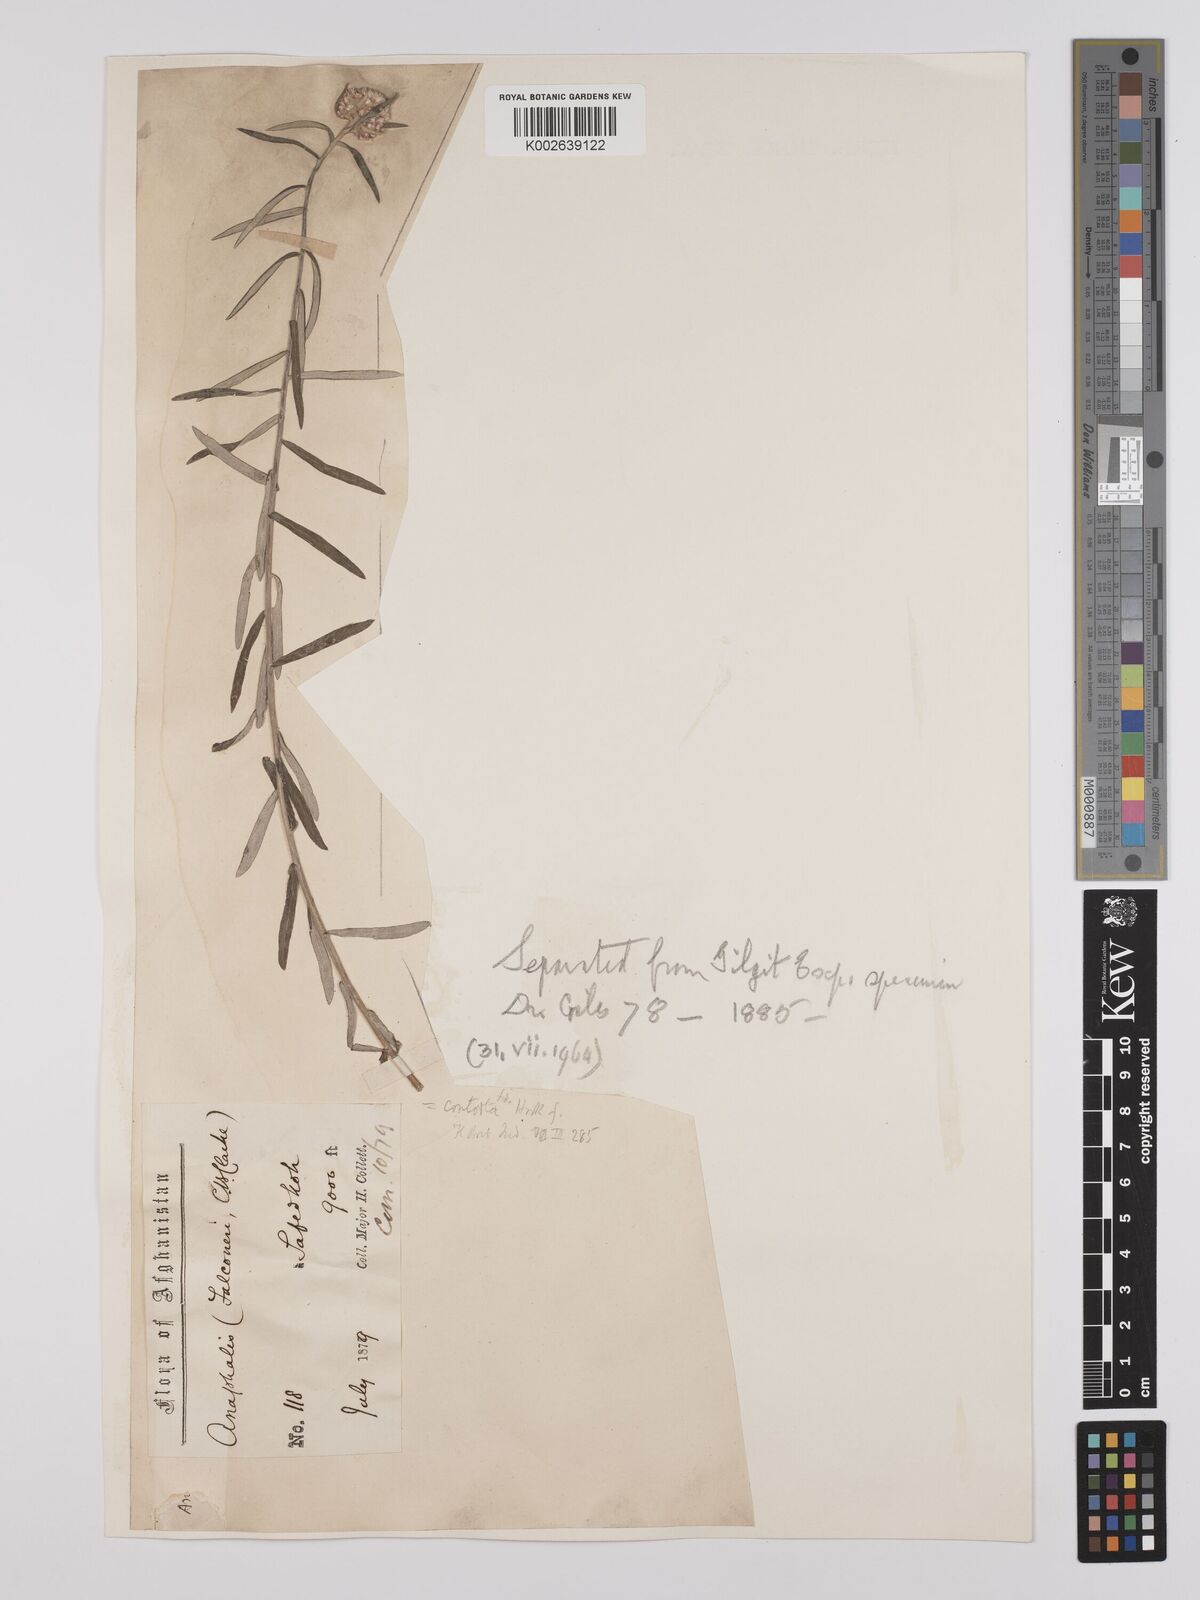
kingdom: Plantae
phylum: Tracheophyta
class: Magnoliopsida
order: Asterales
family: Asteraceae
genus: Anaphalis
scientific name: Anaphalis contorta
